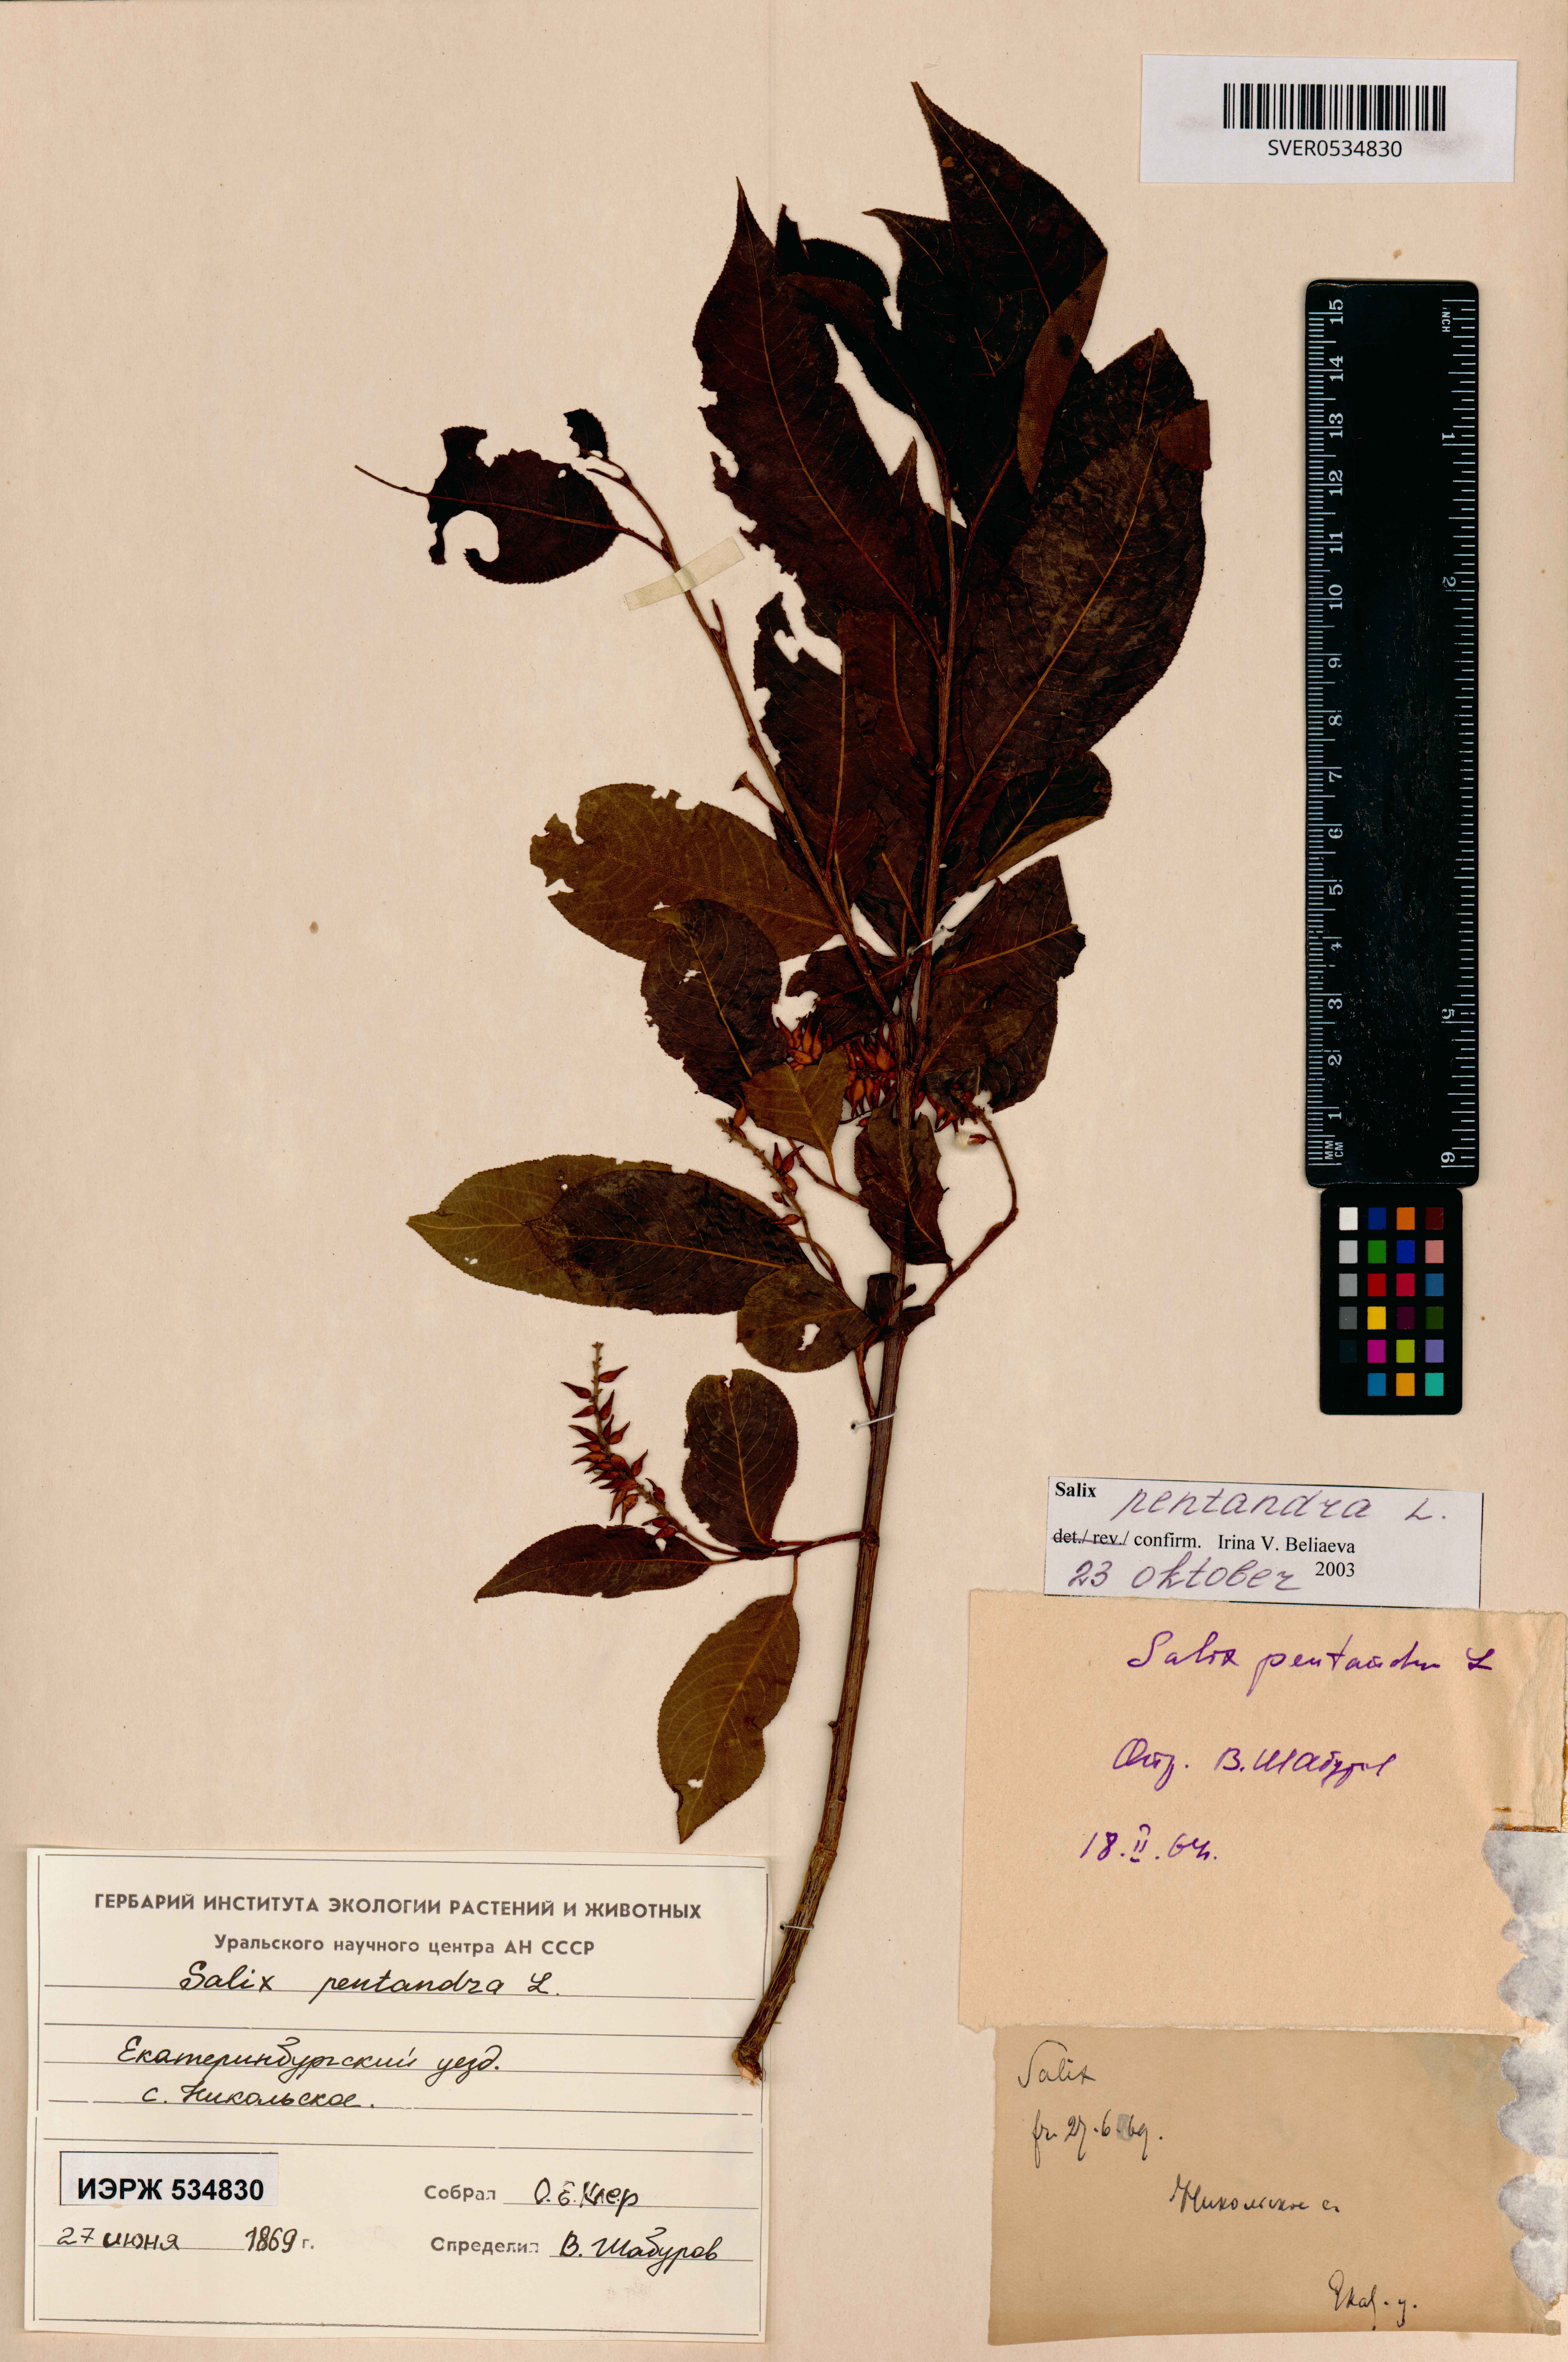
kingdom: Plantae
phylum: Tracheophyta
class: Magnoliopsida
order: Malpighiales
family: Salicaceae
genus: Salix
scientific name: Salix pentandra
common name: Bay willow
